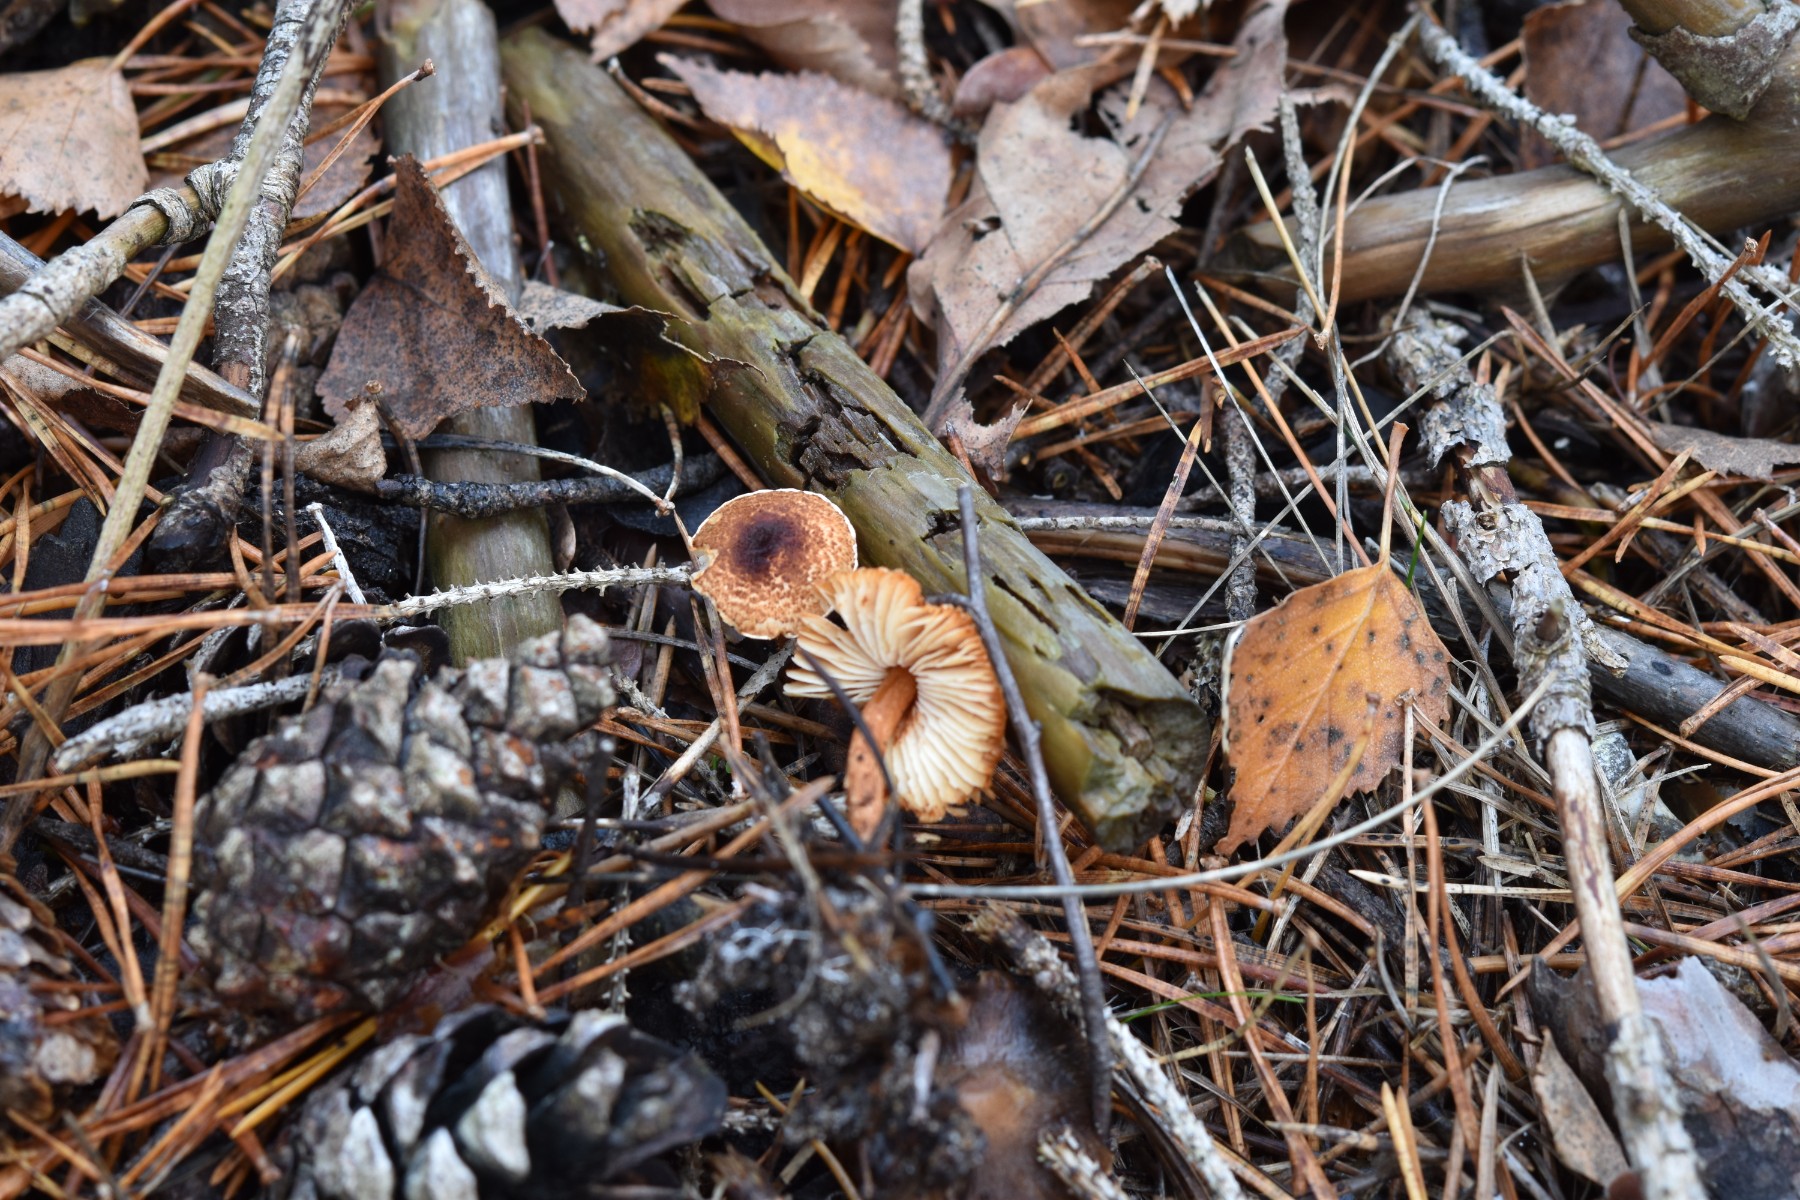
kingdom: Fungi
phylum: Basidiomycota
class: Agaricomycetes
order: Agaricales
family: Agaricaceae
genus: Lepiota
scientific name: Lepiota castanea
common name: kastaniebrun parasolhat
